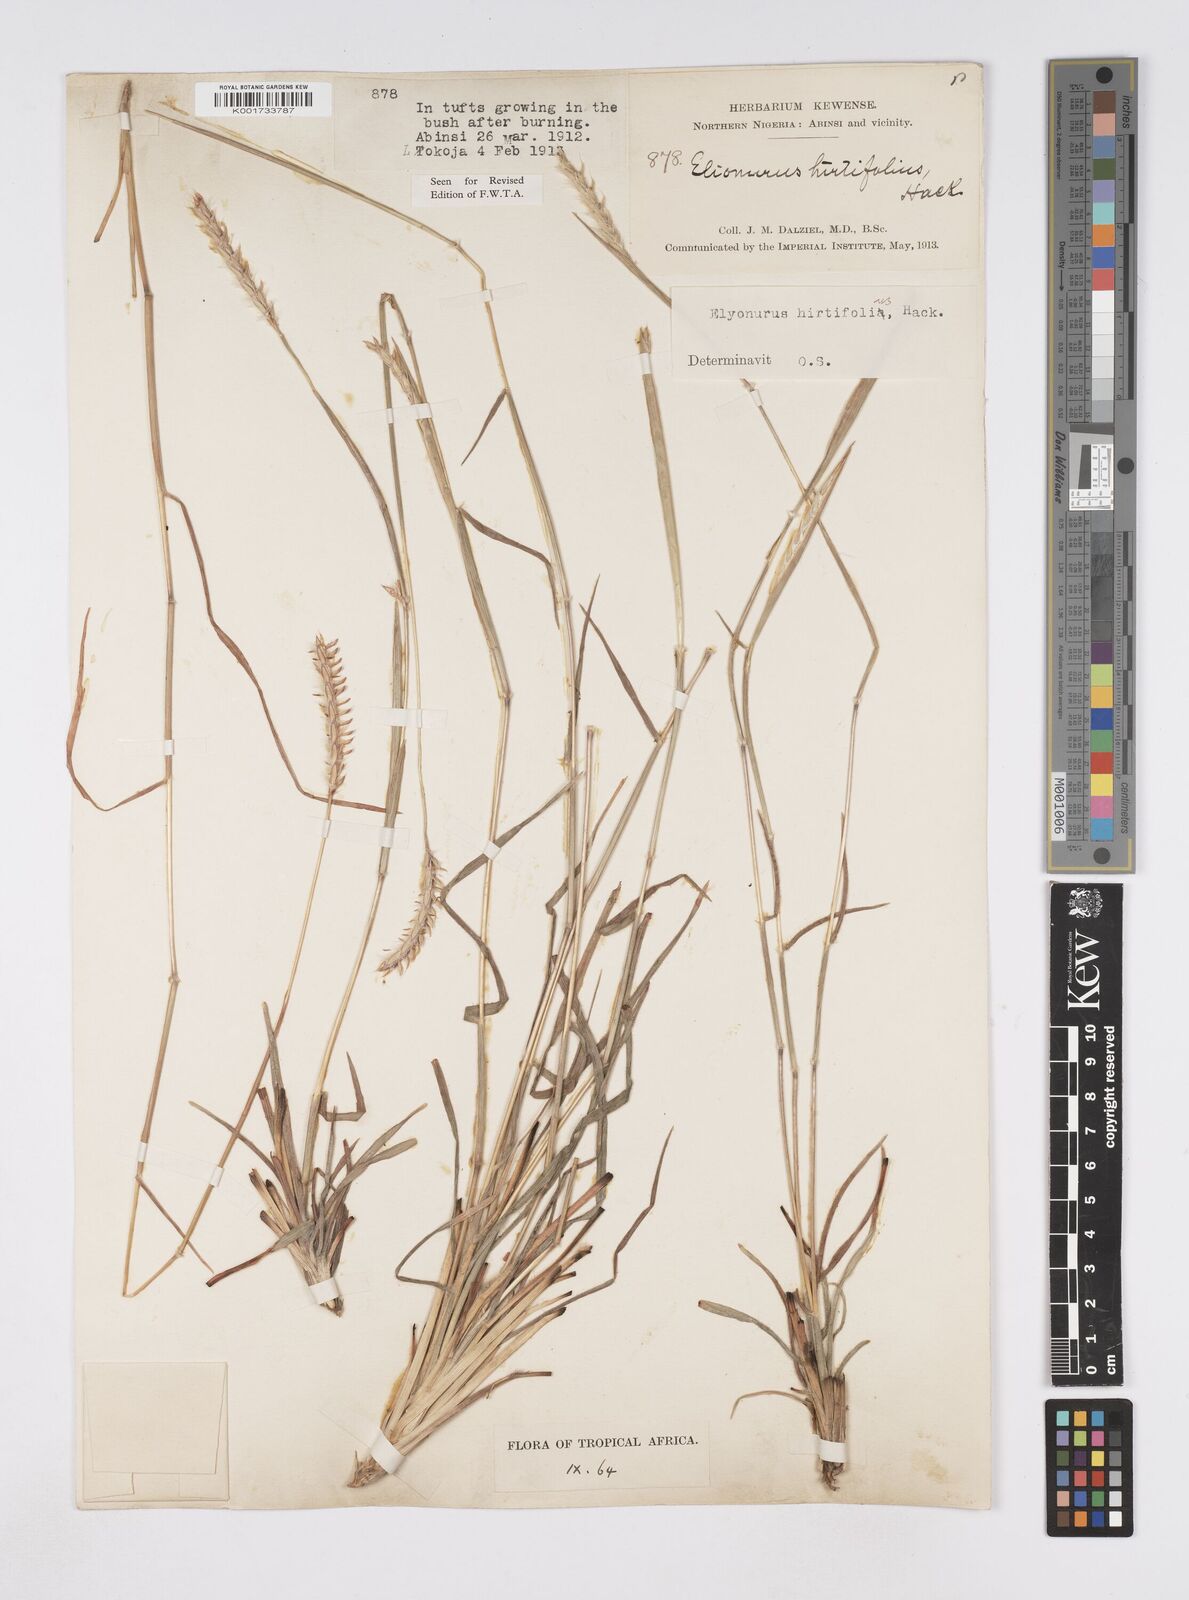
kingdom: Plantae
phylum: Tracheophyta
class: Liliopsida
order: Poales
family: Poaceae
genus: Elionurus
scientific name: Elionurus hirtifolius
